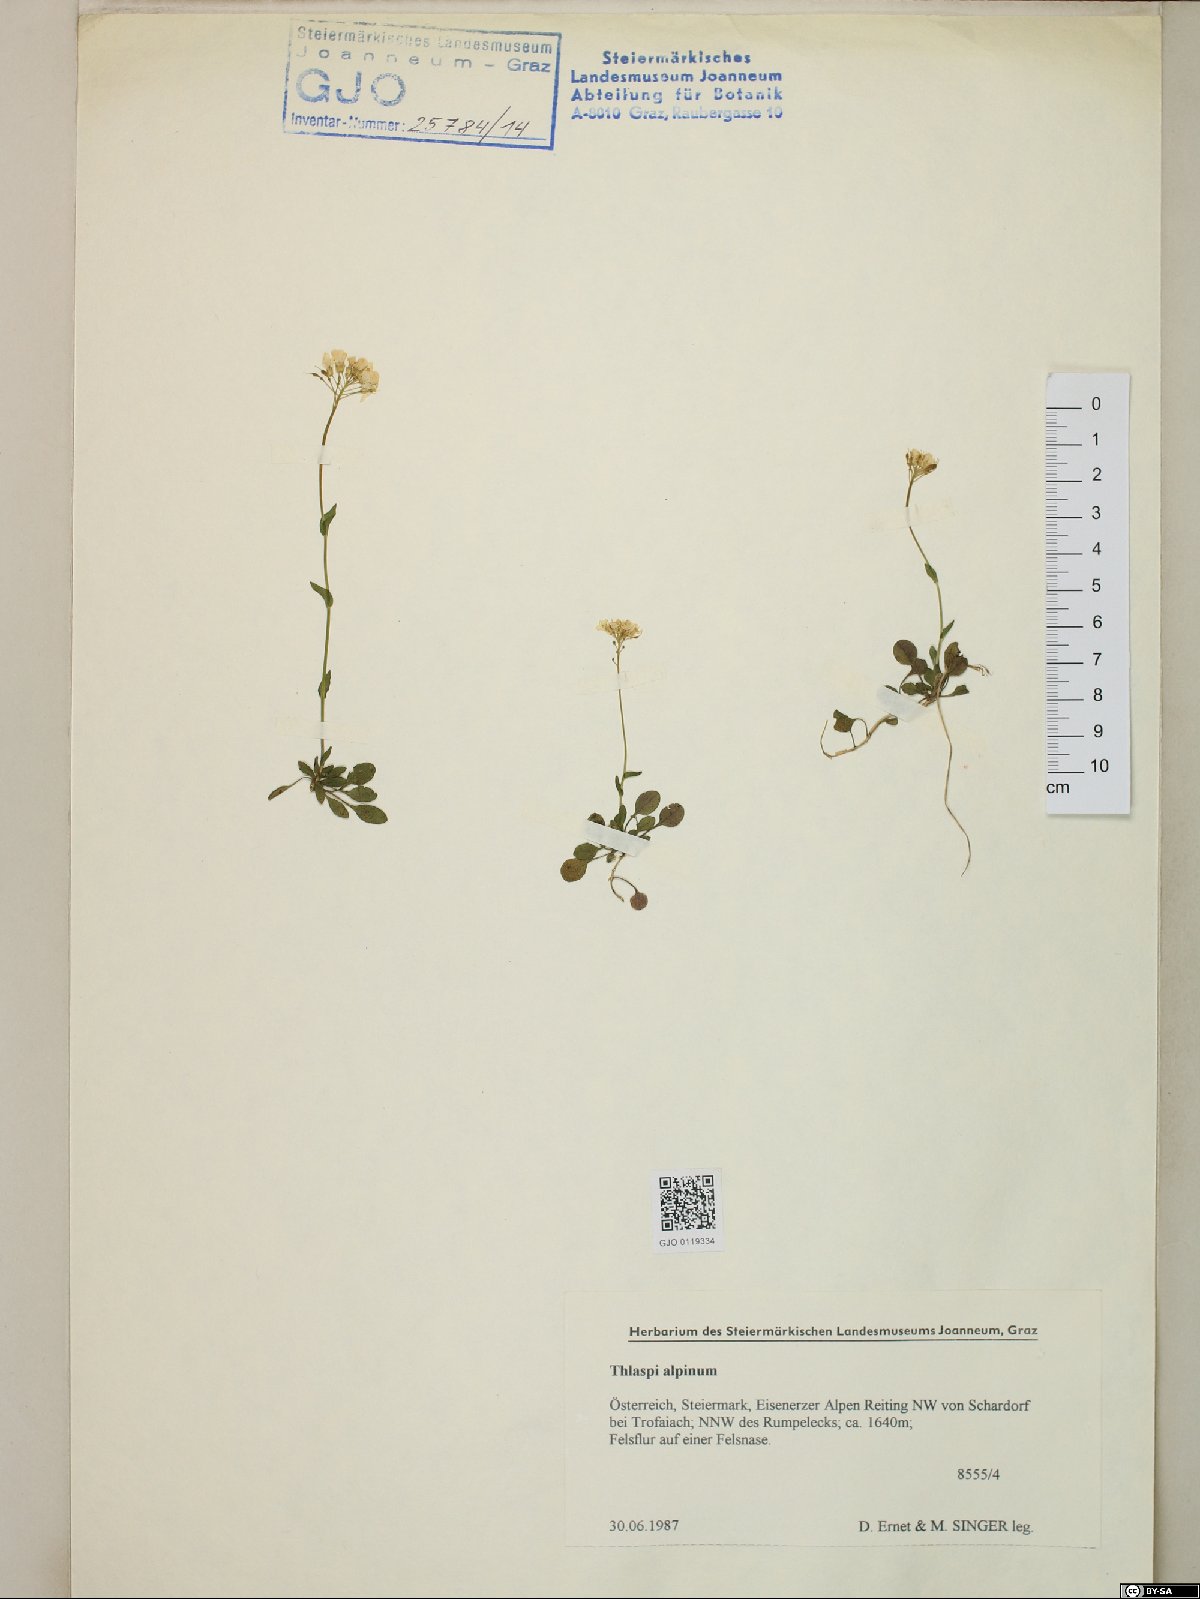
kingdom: Plantae
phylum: Tracheophyta
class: Magnoliopsida
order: Brassicales
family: Brassicaceae
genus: Noccaea
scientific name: Noccaea alpestris
